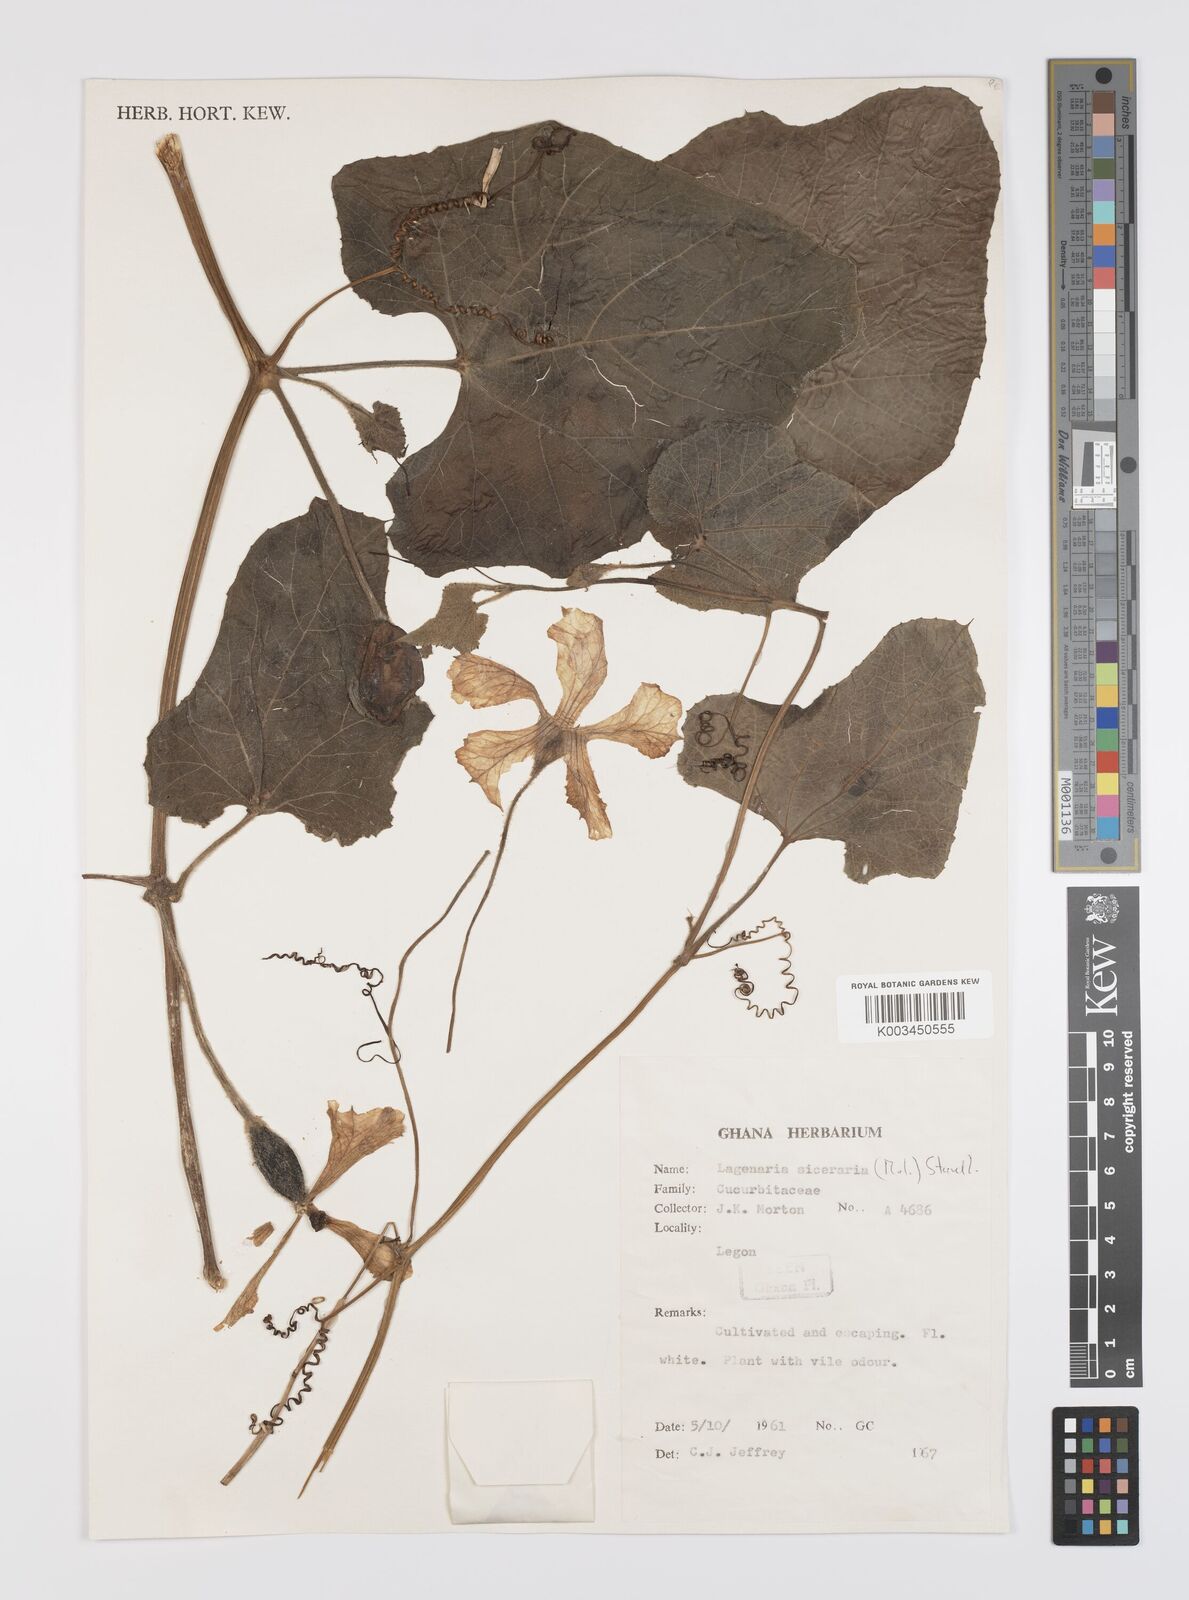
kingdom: Plantae
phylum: Tracheophyta
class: Magnoliopsida
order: Cucurbitales
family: Cucurbitaceae
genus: Lagenaria
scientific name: Lagenaria siceraria
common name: Bottle gourd
